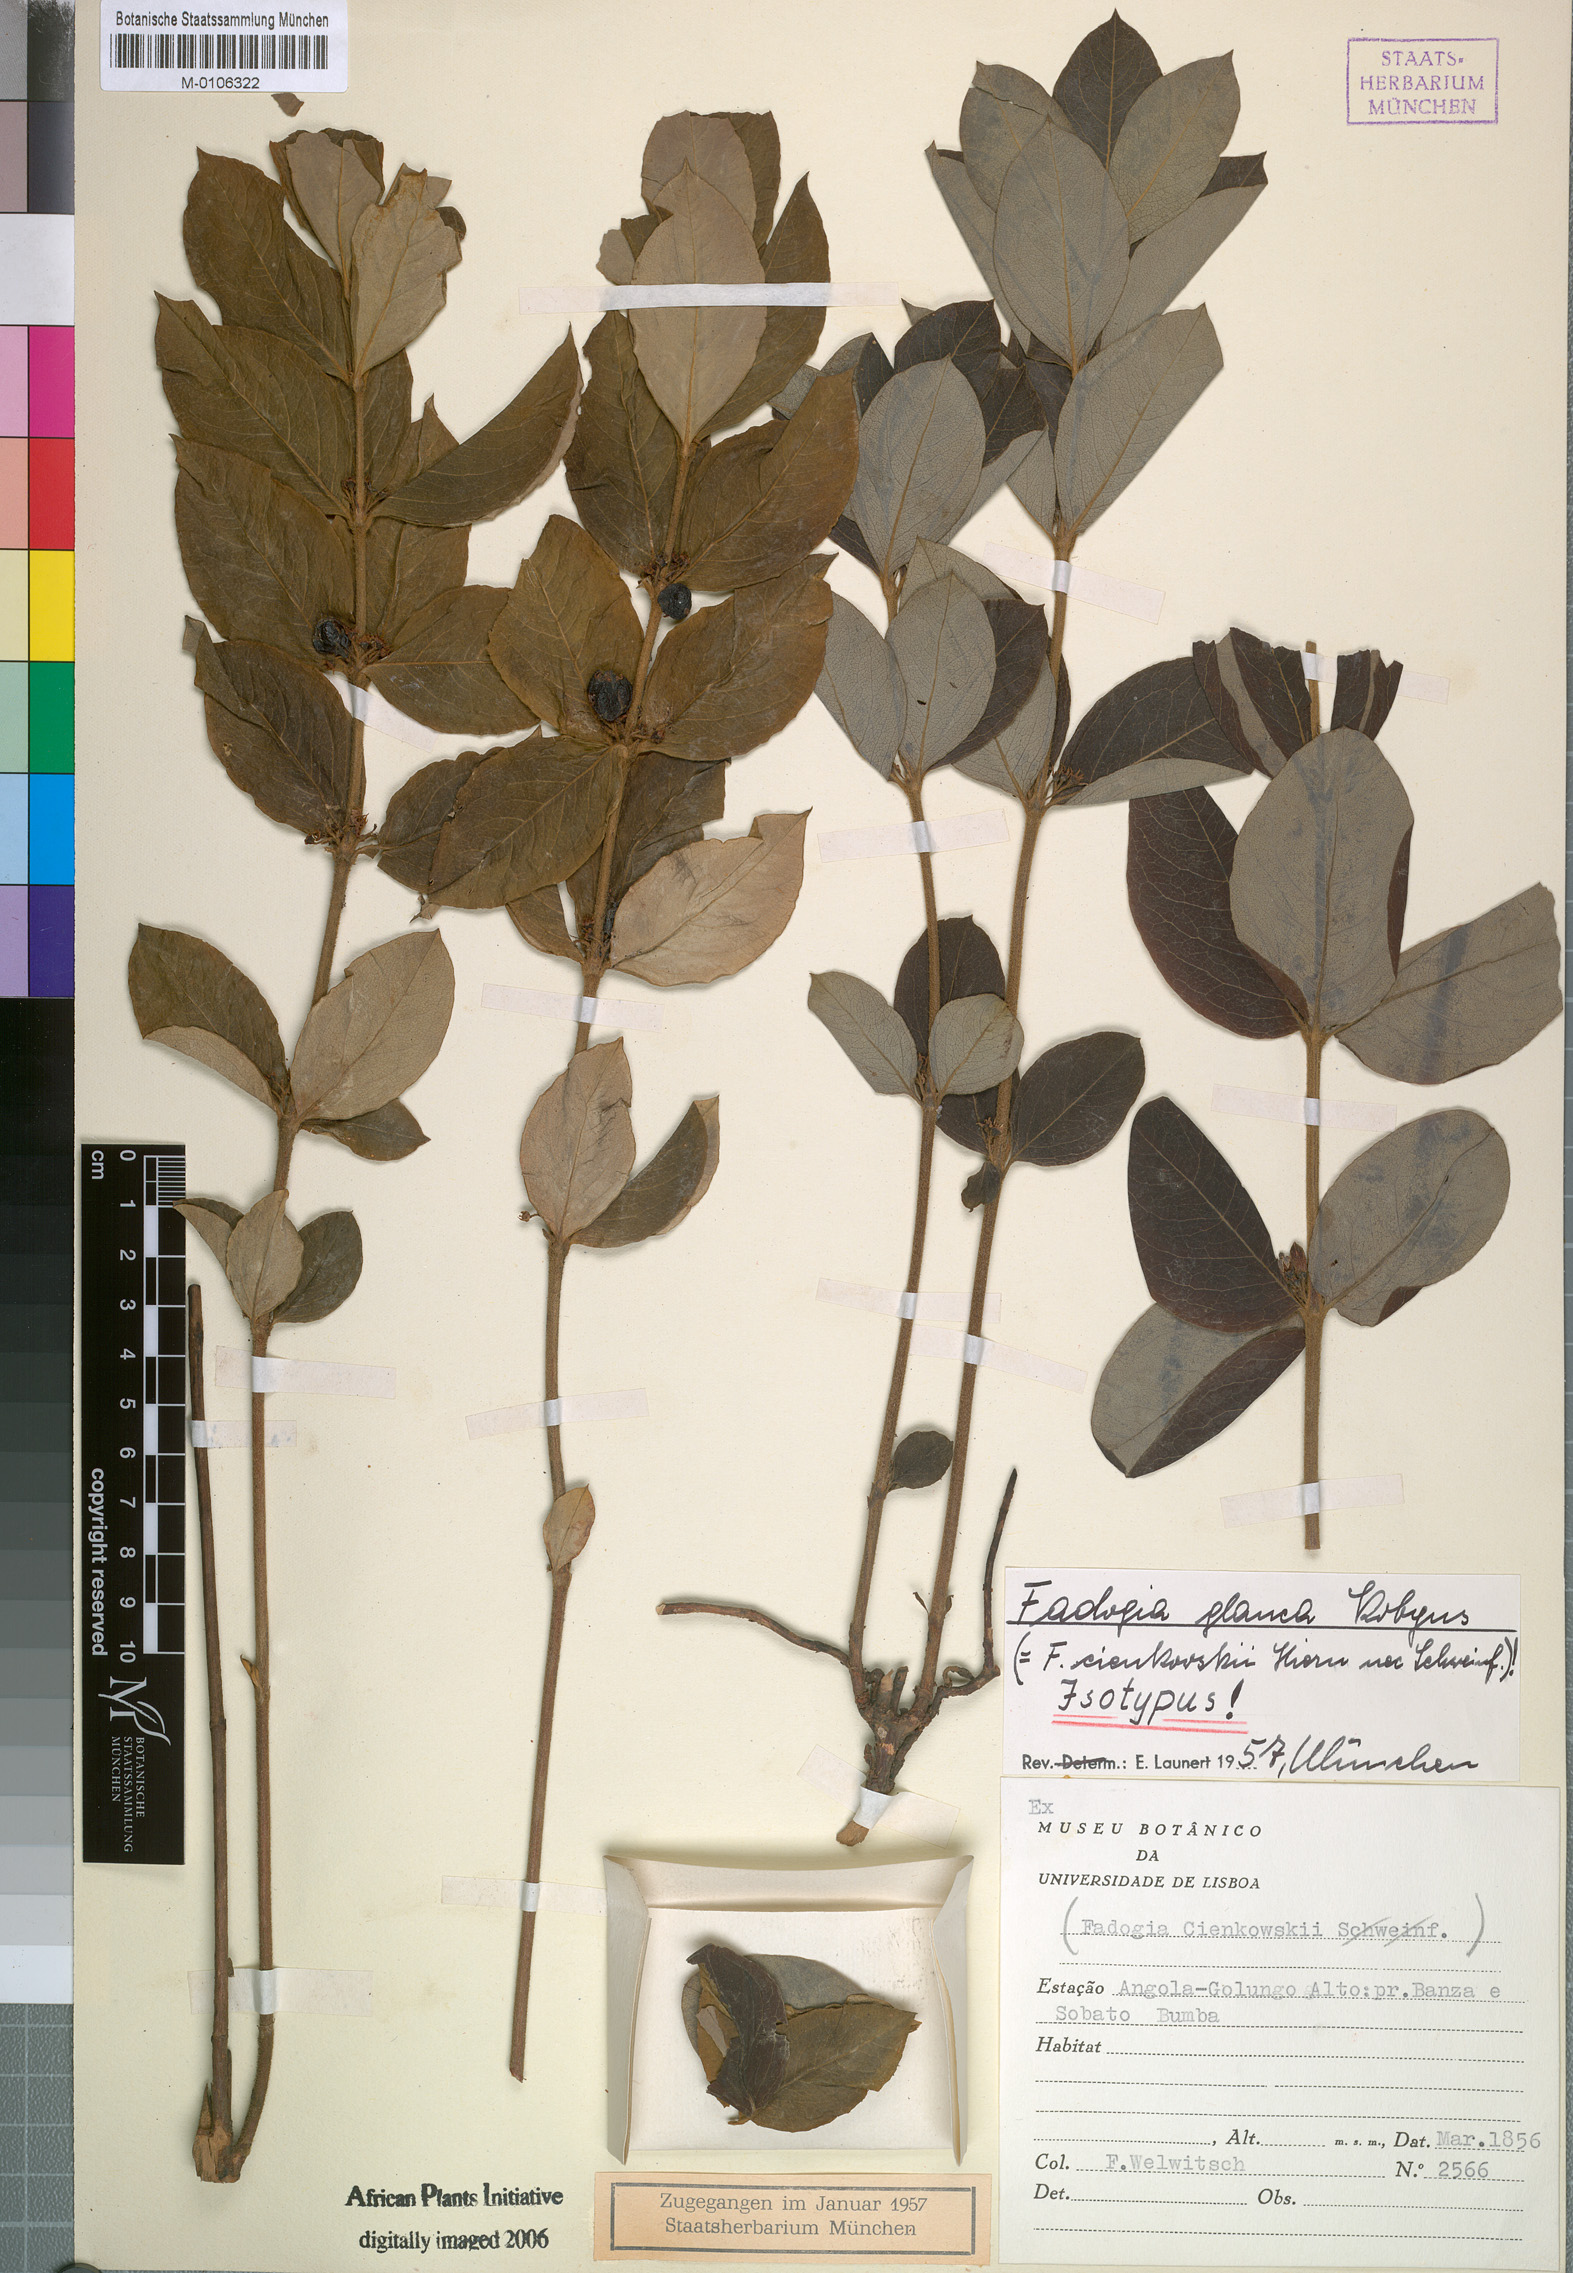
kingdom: Plantae
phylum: Tracheophyta
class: Magnoliopsida
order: Gentianales
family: Rubiaceae
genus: Fadogia
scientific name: Fadogia tetraquetra
